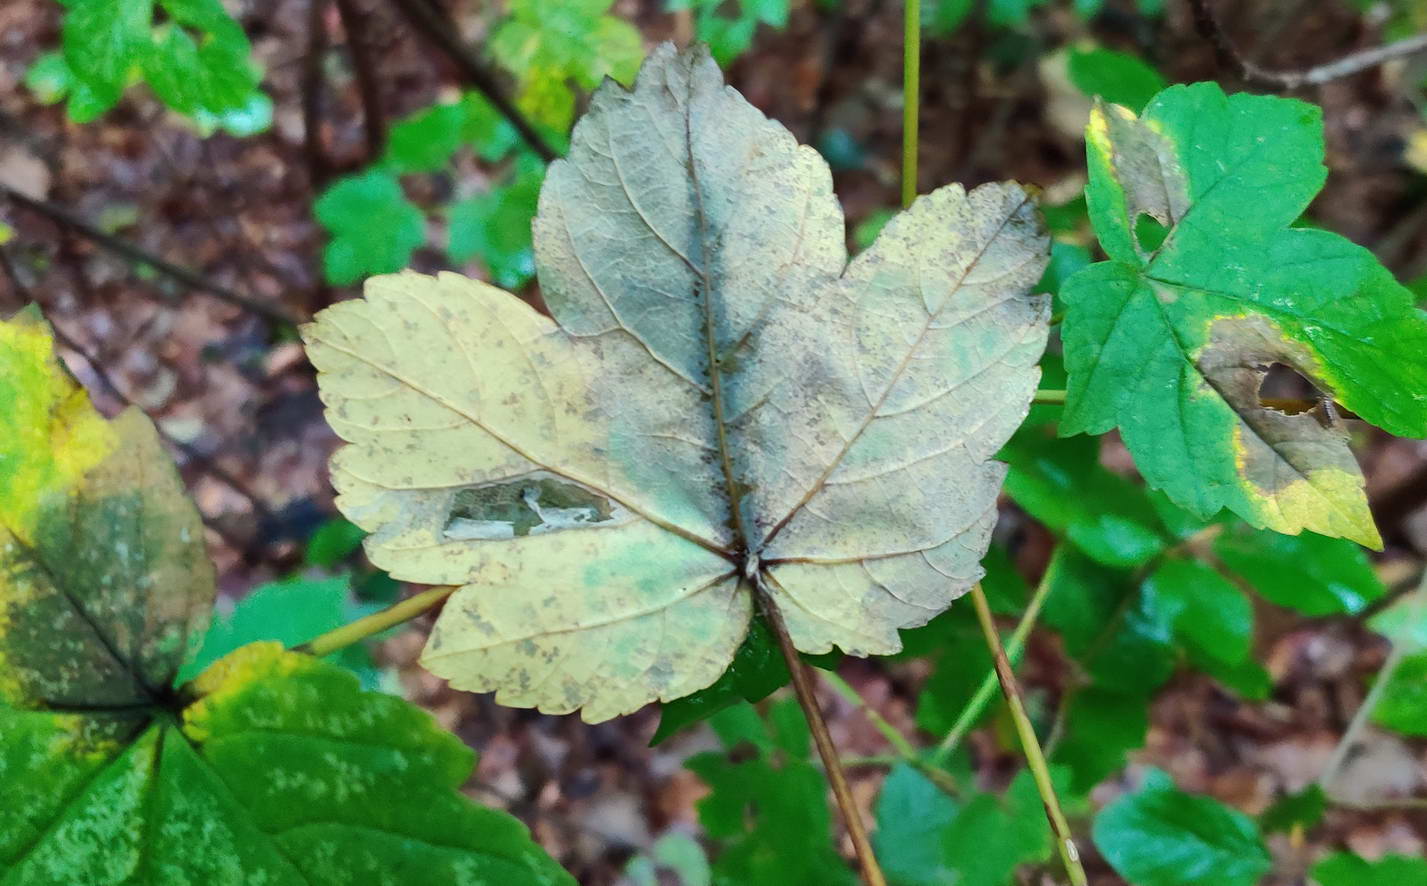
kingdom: Fungi
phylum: Ascomycota
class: Sordariomycetes
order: Diaporthales
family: Gnomoniaceae
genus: Pleuroceras
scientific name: Pleuroceras pseudoplatani
